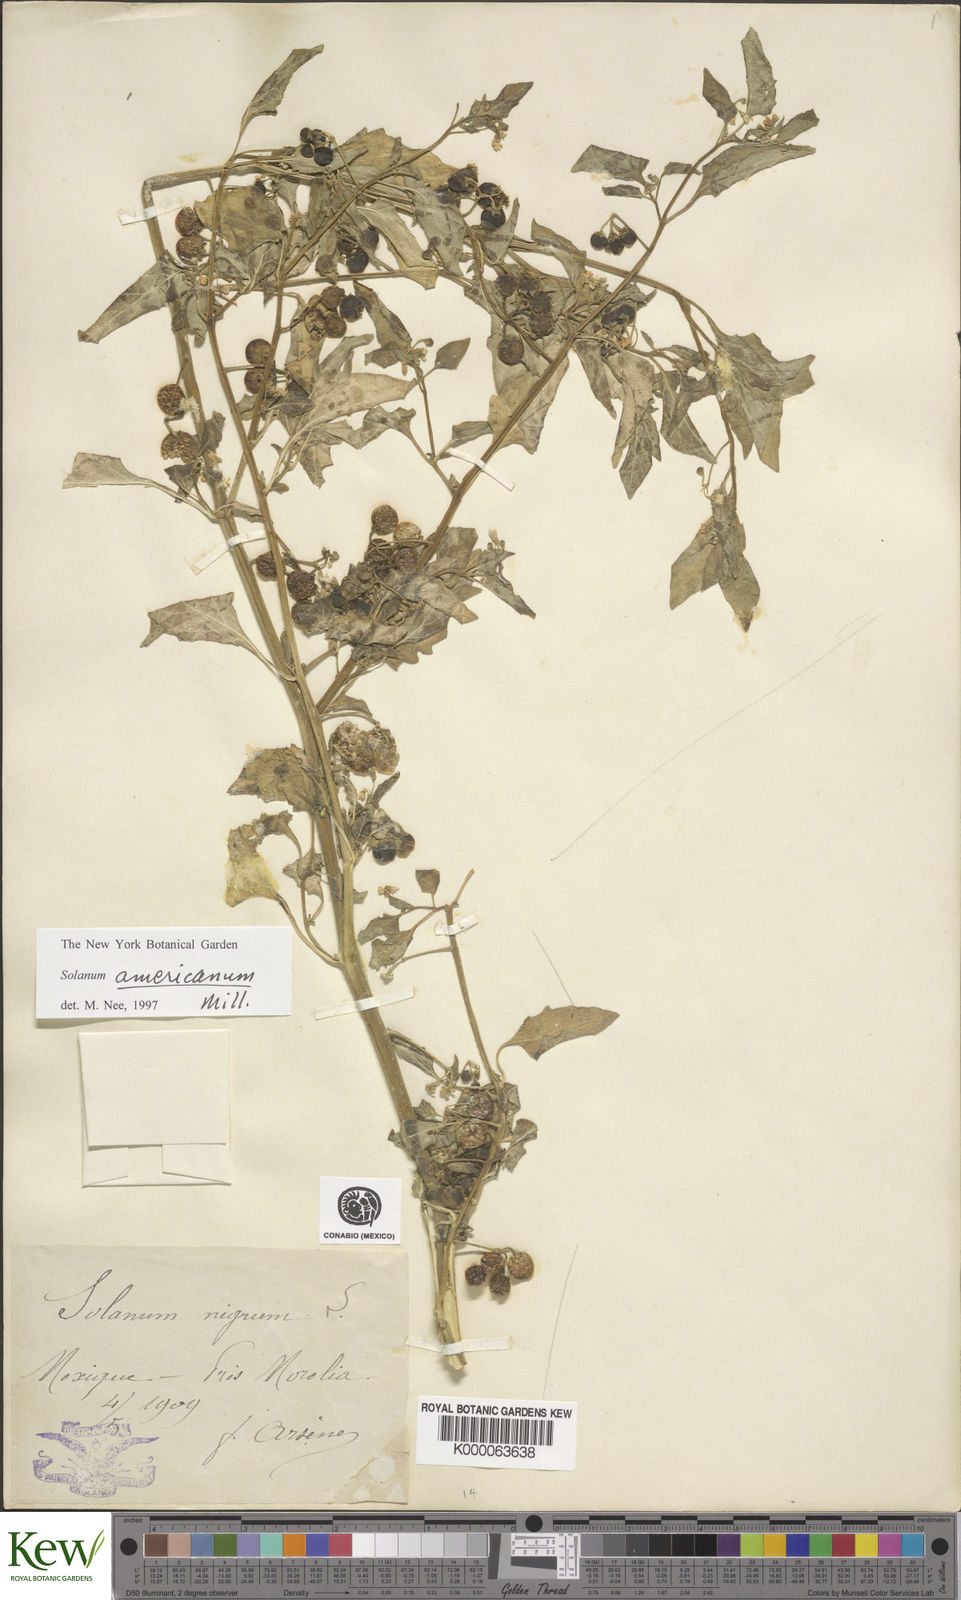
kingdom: Plantae
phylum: Tracheophyta
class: Magnoliopsida
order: Solanales
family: Solanaceae
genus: Solanum
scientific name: Solanum americanum
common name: American black nightshade
